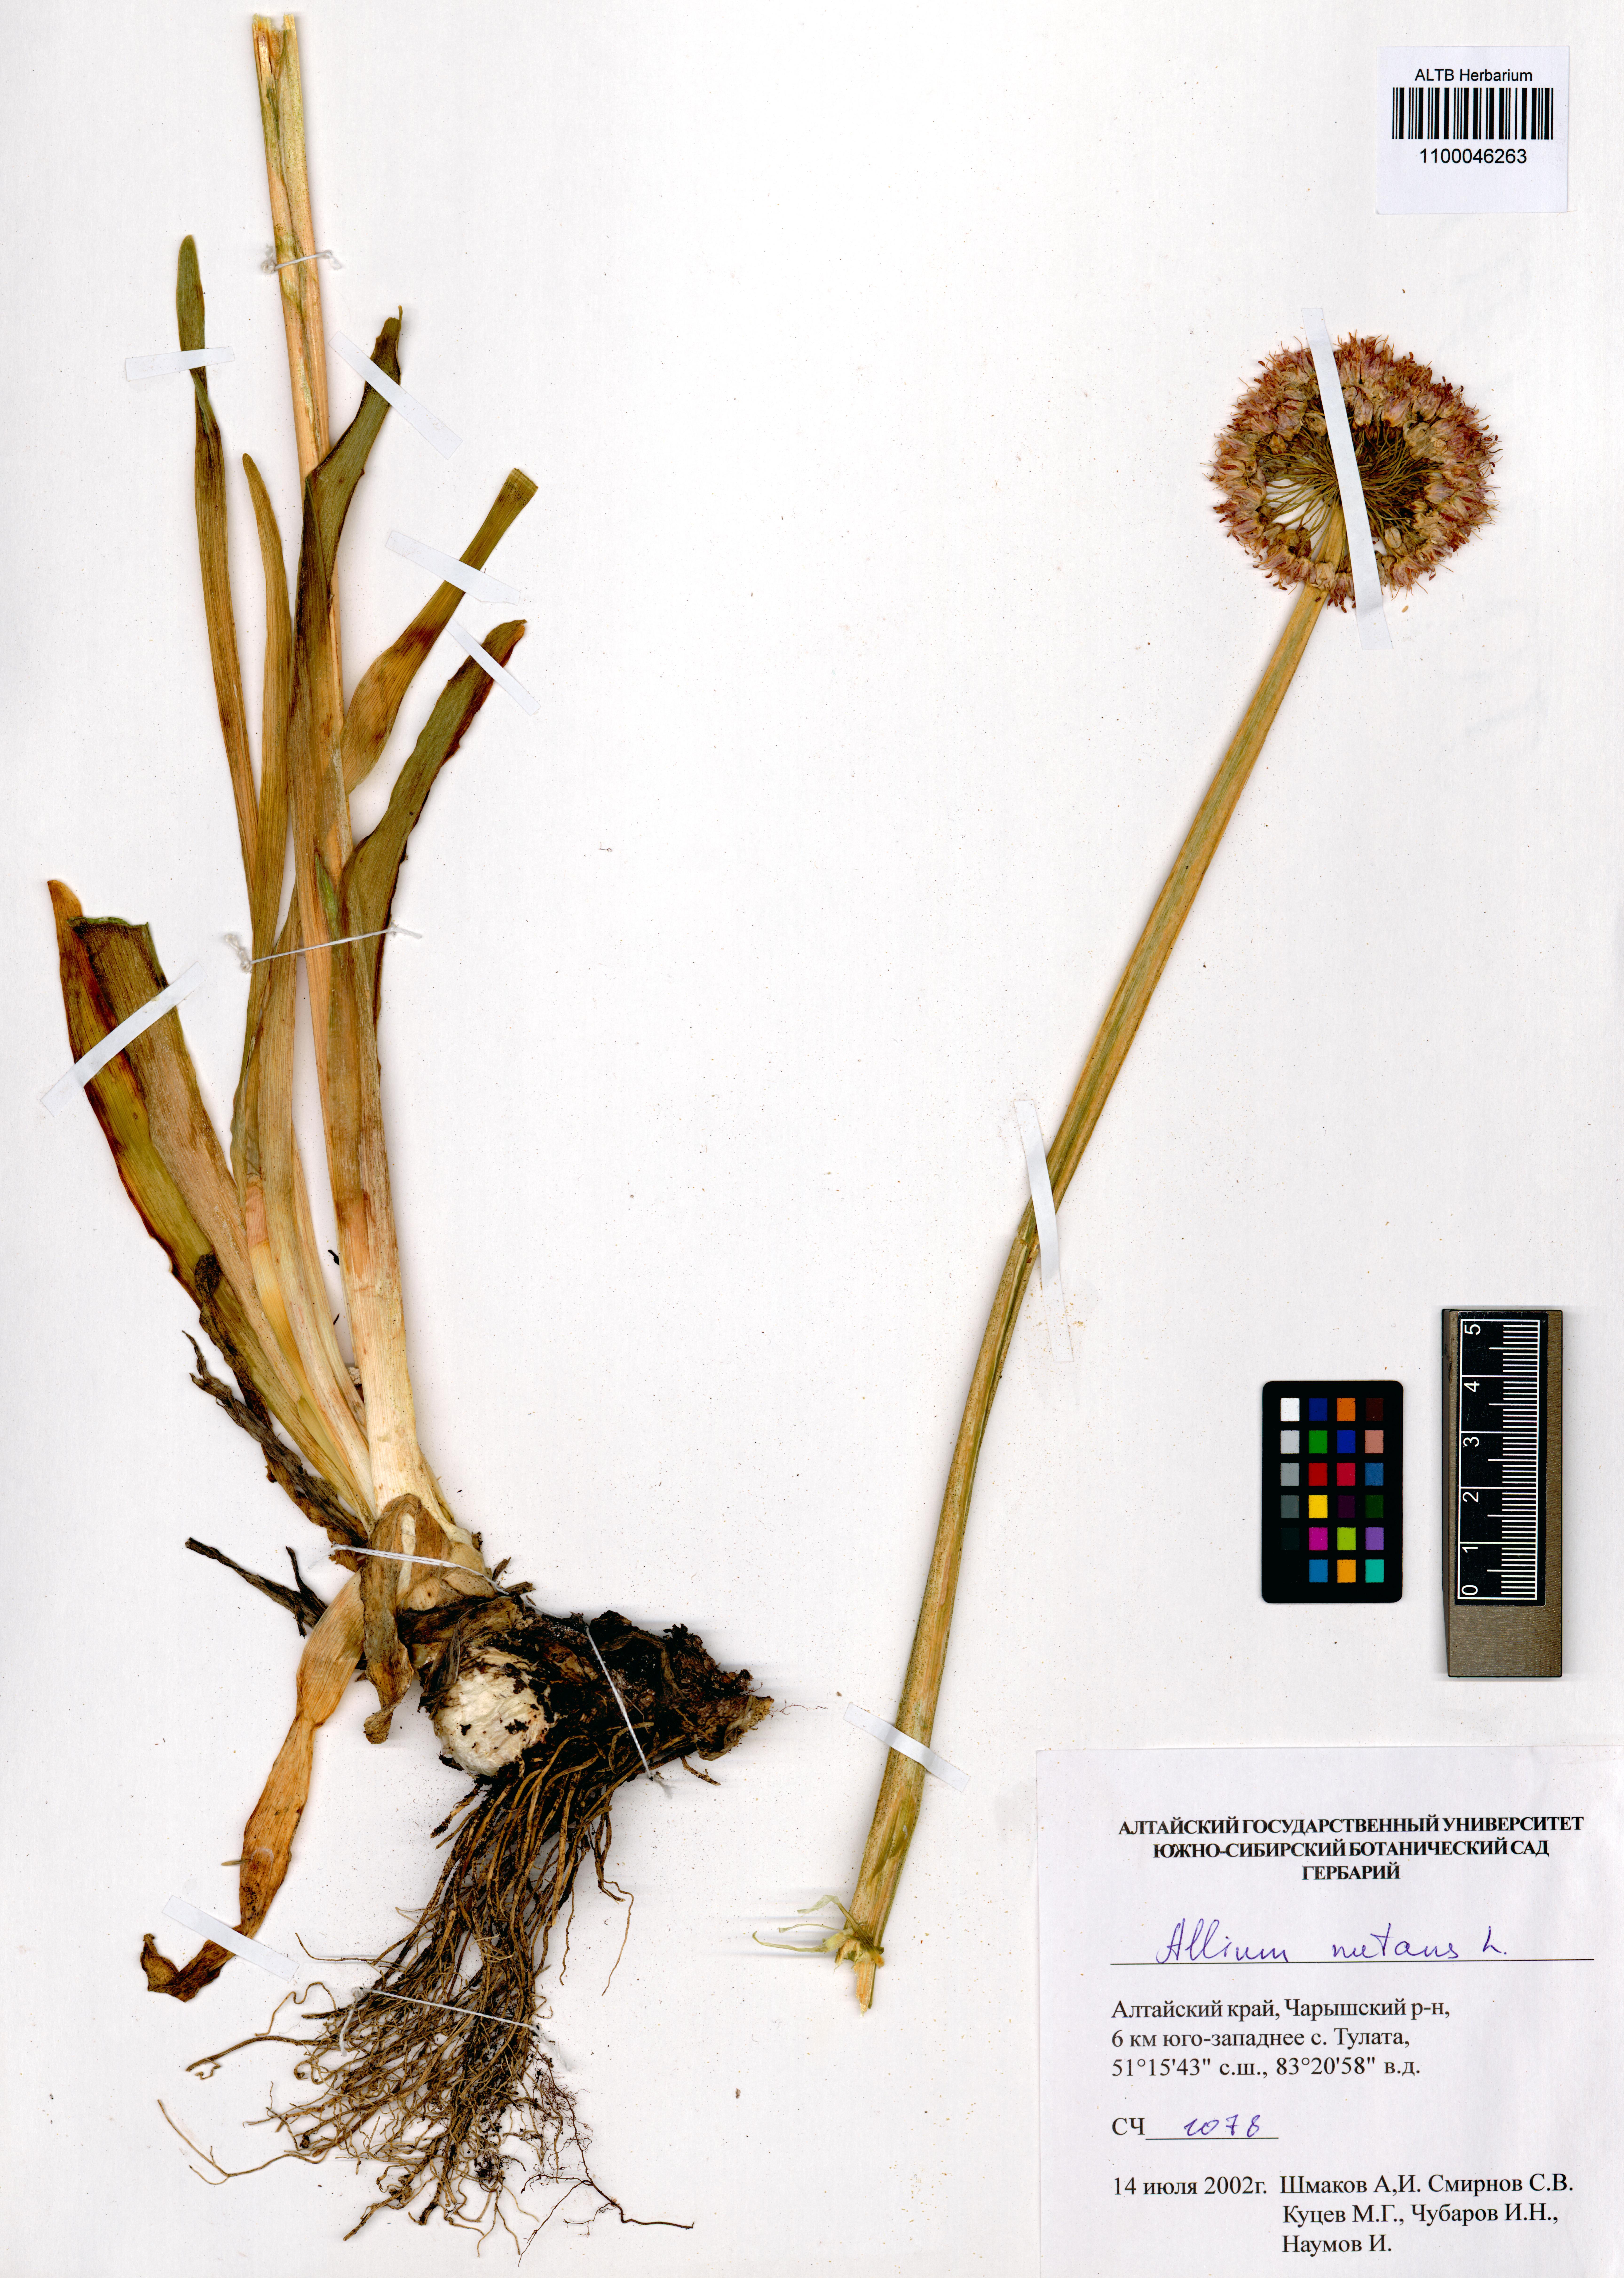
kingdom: Plantae
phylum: Tracheophyta
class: Liliopsida
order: Asparagales
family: Amaryllidaceae
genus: Allium
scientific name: Allium nutans
